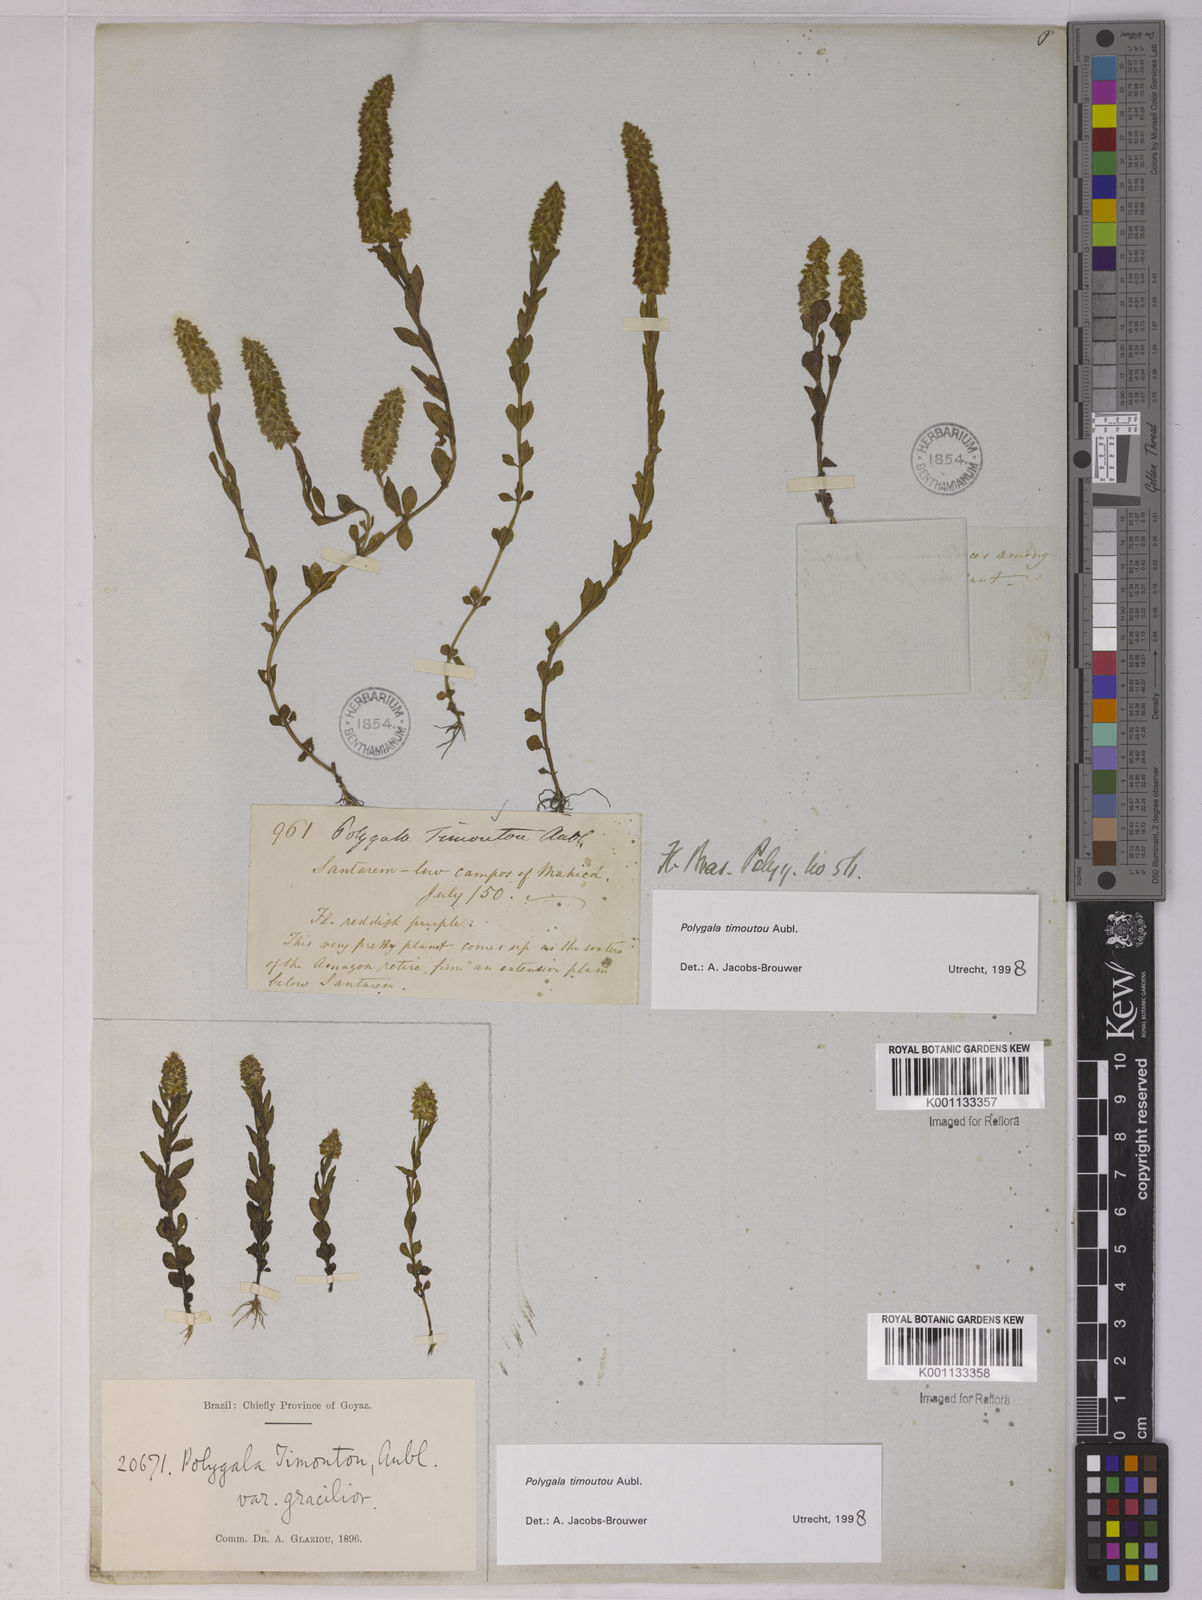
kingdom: Plantae
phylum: Tracheophyta
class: Magnoliopsida
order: Fabales
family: Polygalaceae
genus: Polygala
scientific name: Polygala timoutoides
